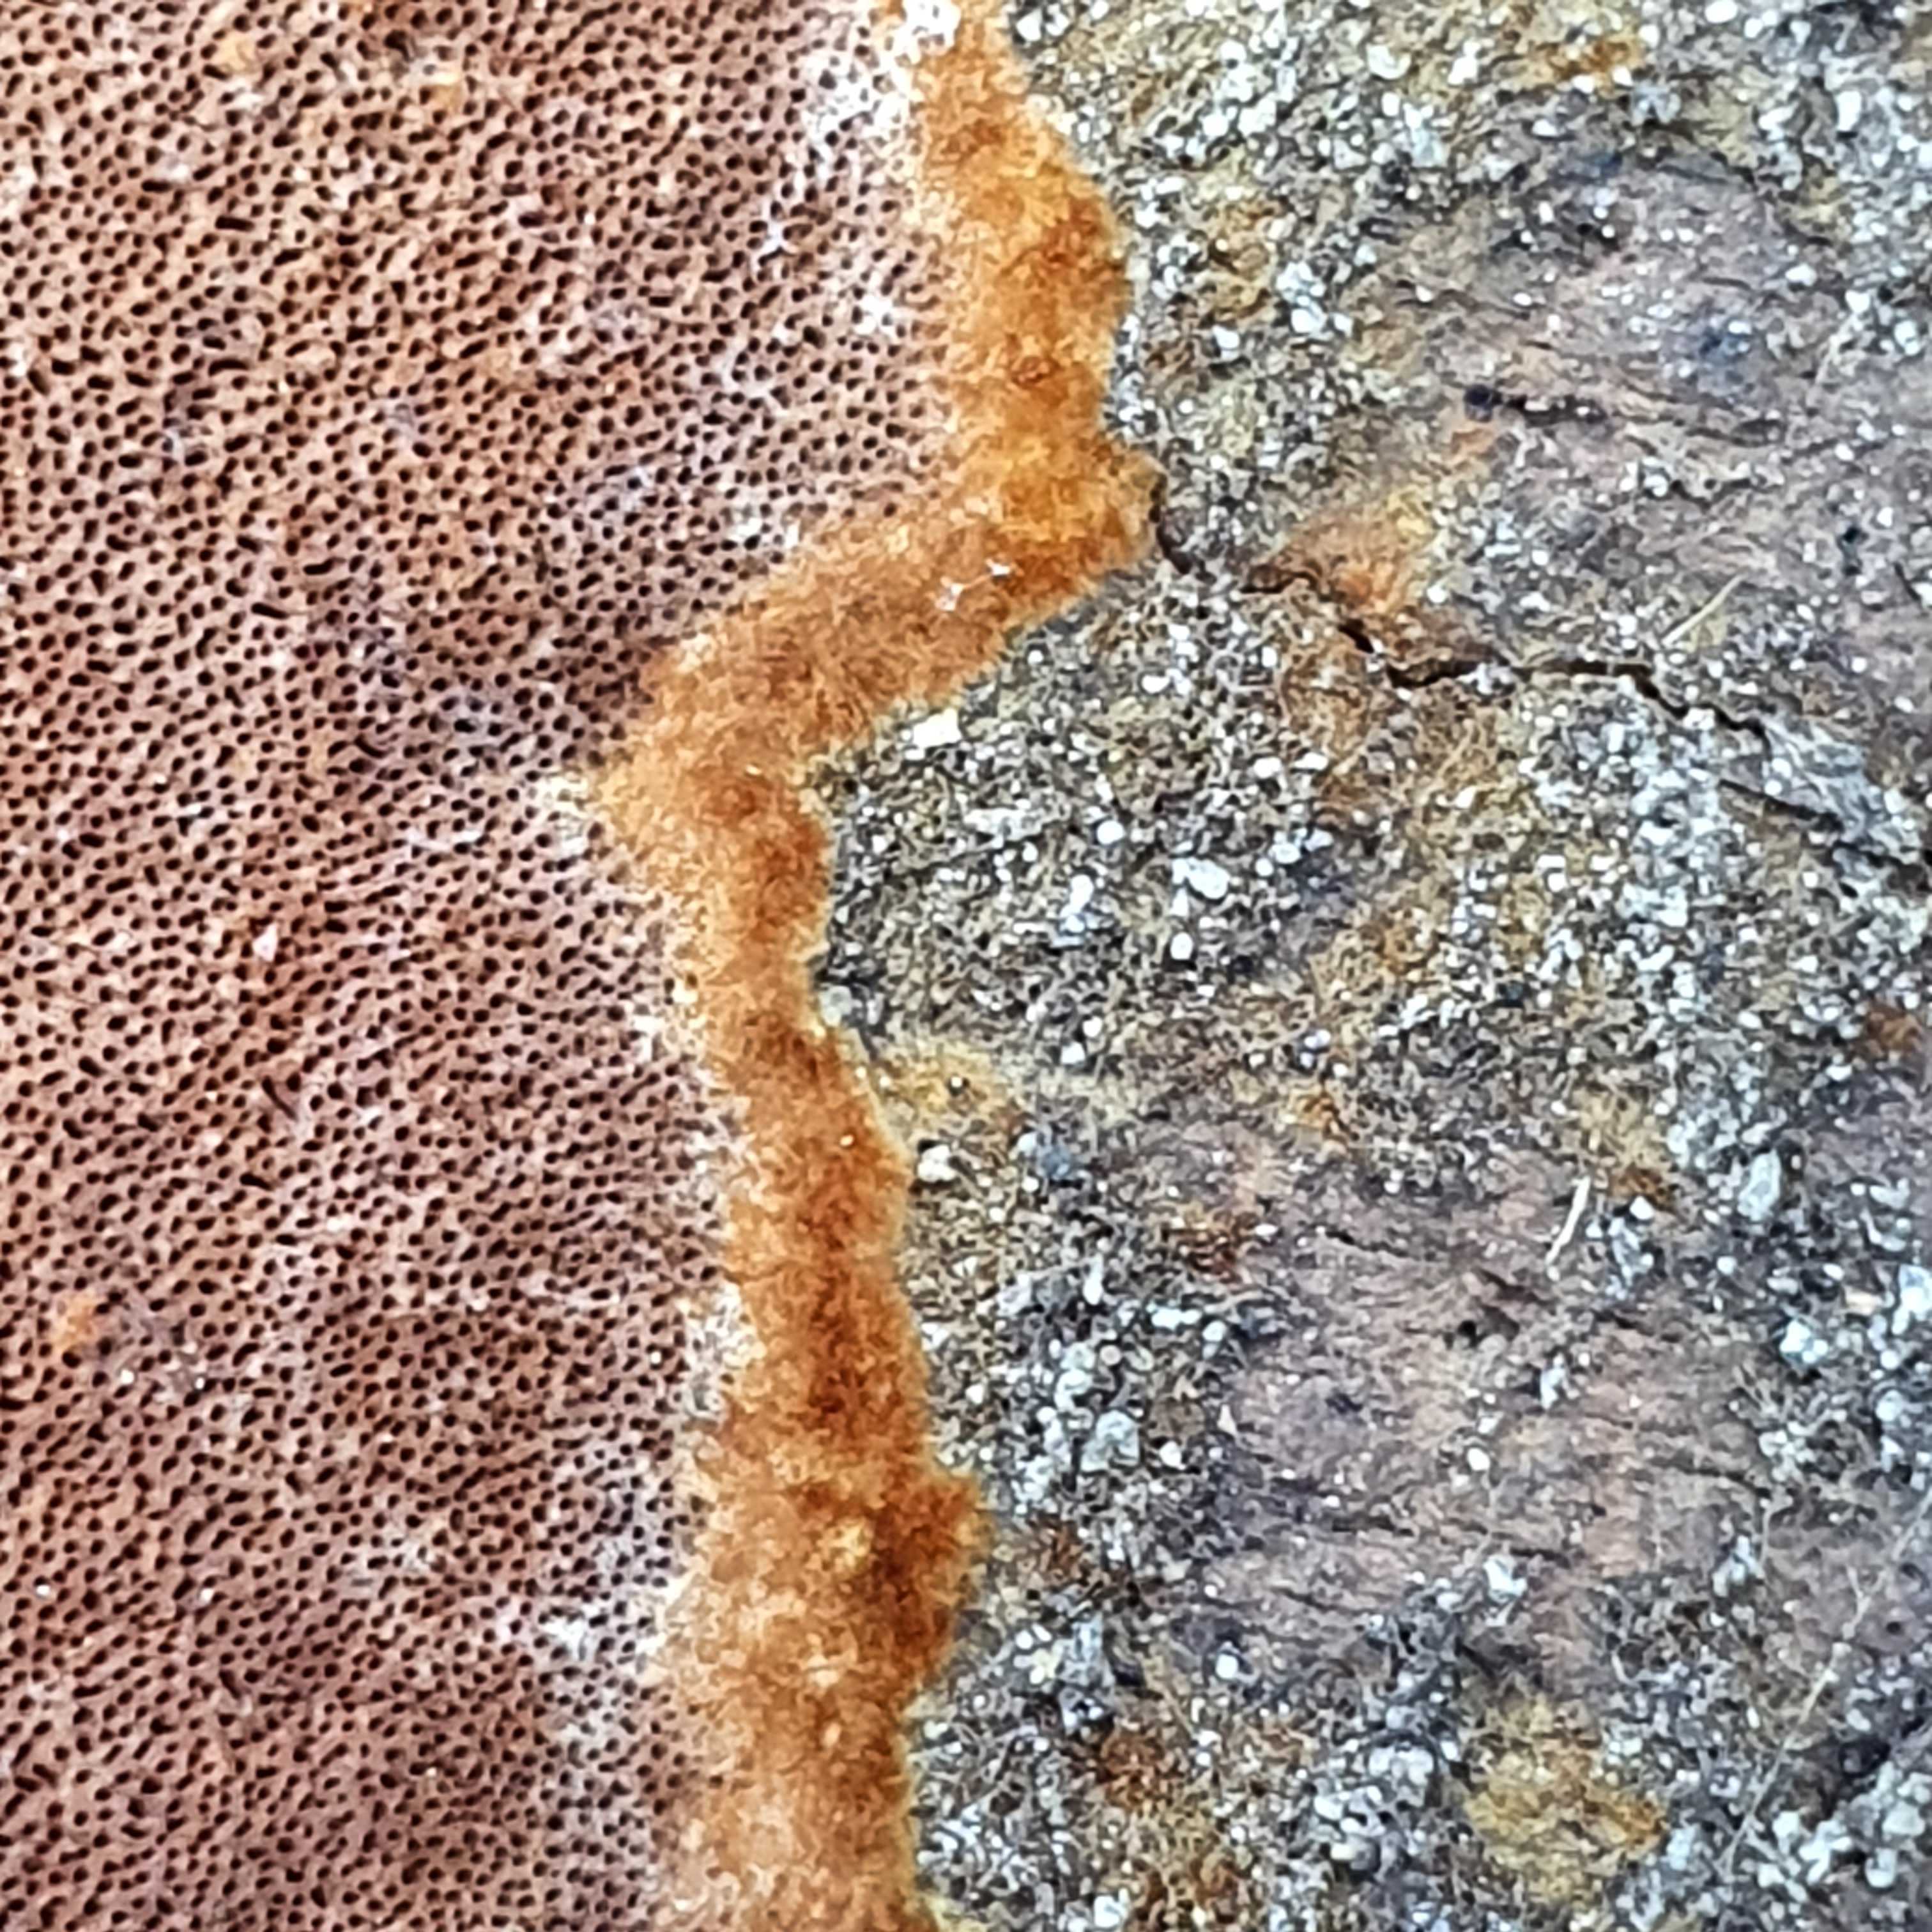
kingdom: Fungi
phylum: Basidiomycota
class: Agaricomycetes
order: Hymenochaetales
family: Hymenochaetaceae
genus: Fuscoporia
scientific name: Fuscoporia
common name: Ildporesvamp
